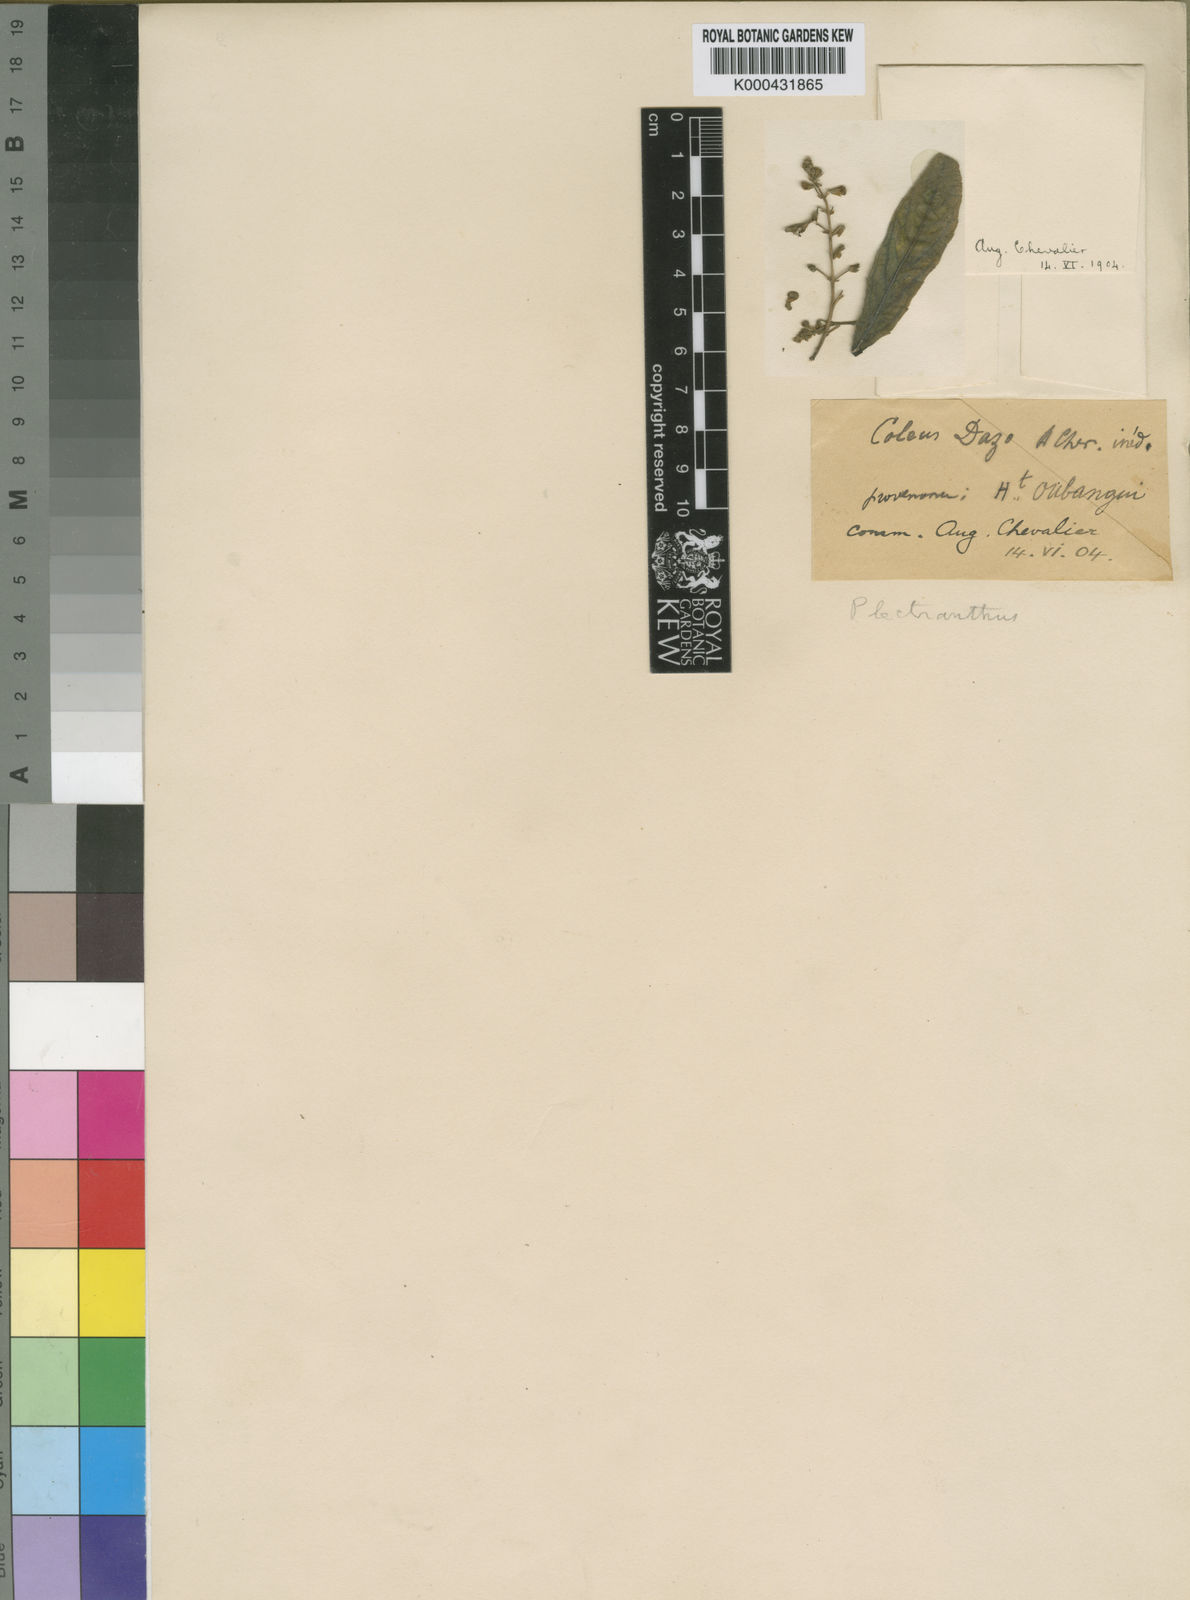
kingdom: Plantae
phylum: Tracheophyta
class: Magnoliopsida
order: Lamiales
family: Lamiaceae
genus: Coleus
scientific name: Coleus esculentus
